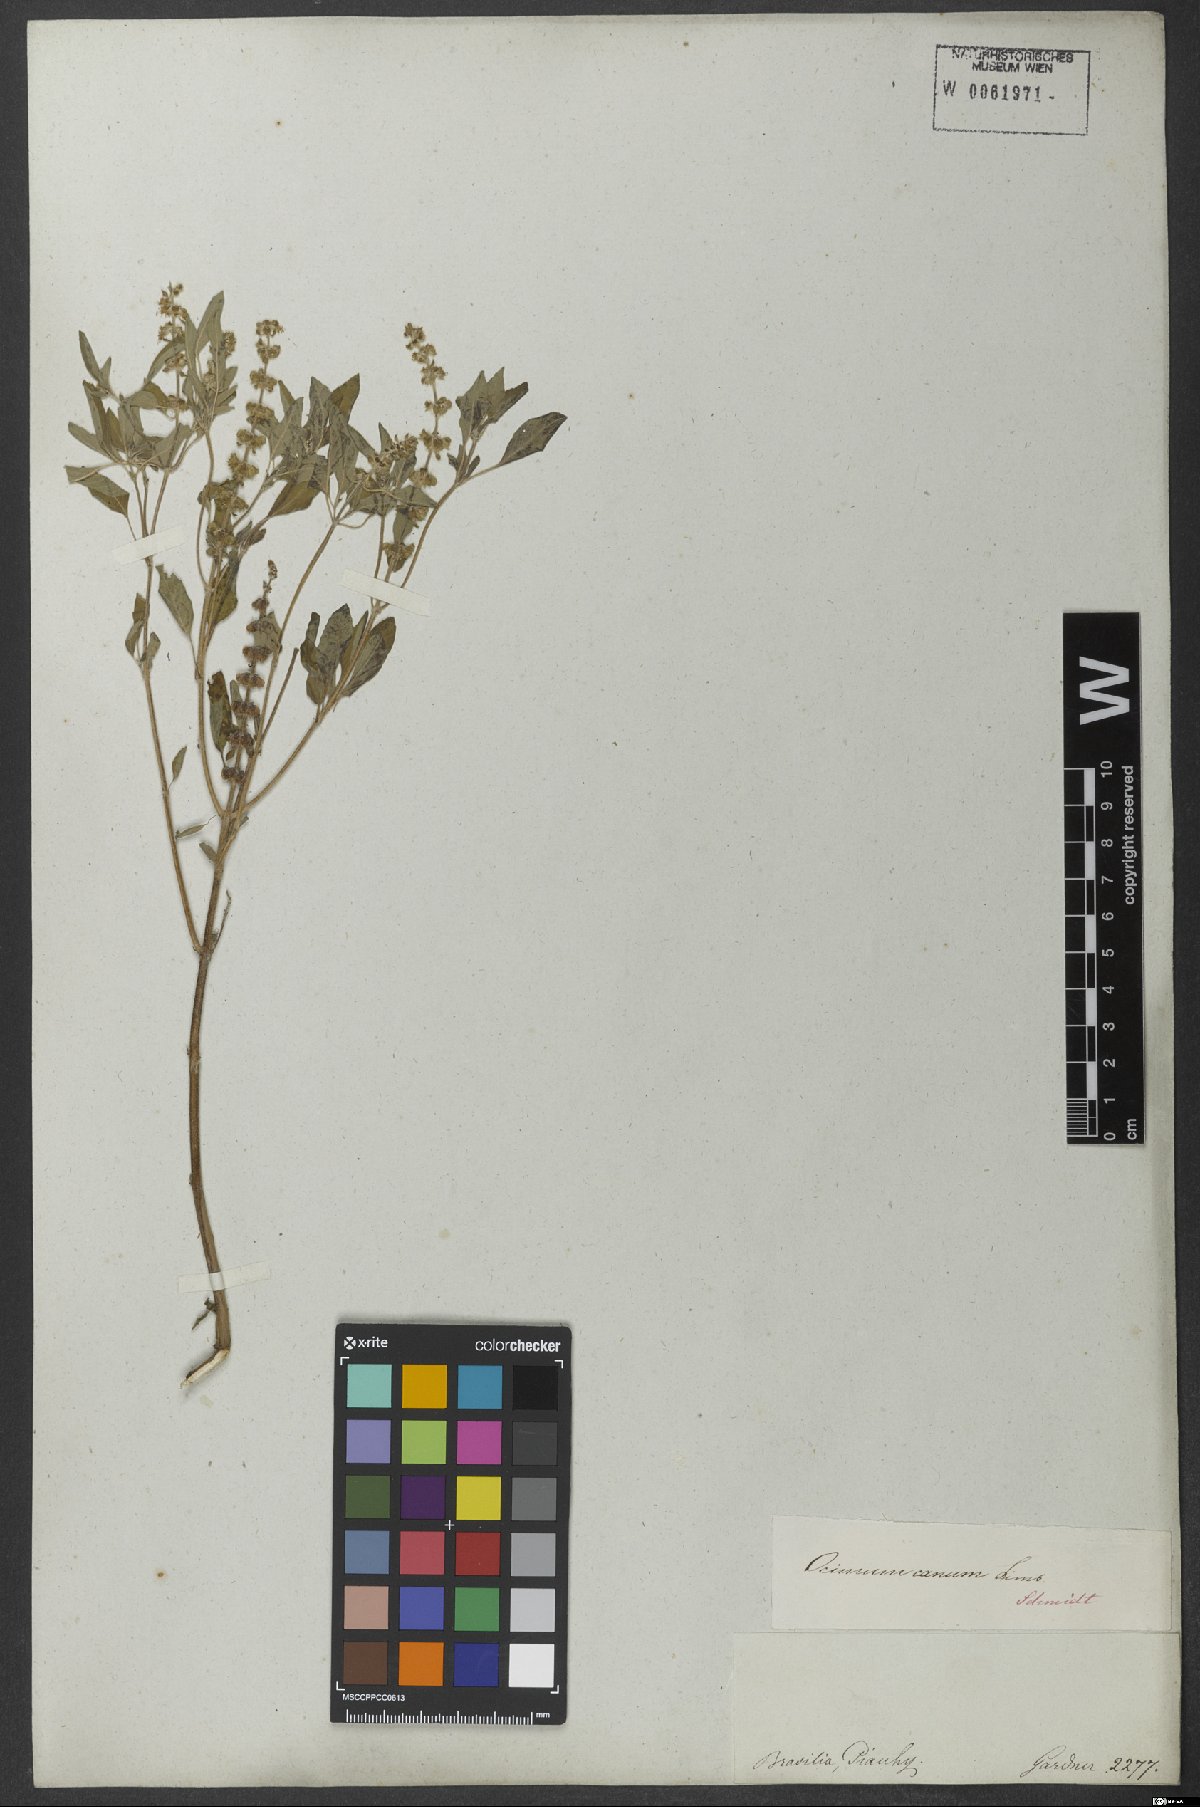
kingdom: Plantae
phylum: Tracheophyta
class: Magnoliopsida
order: Lamiales
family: Lamiaceae
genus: Ocimum
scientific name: Ocimum americanum
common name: American basil
